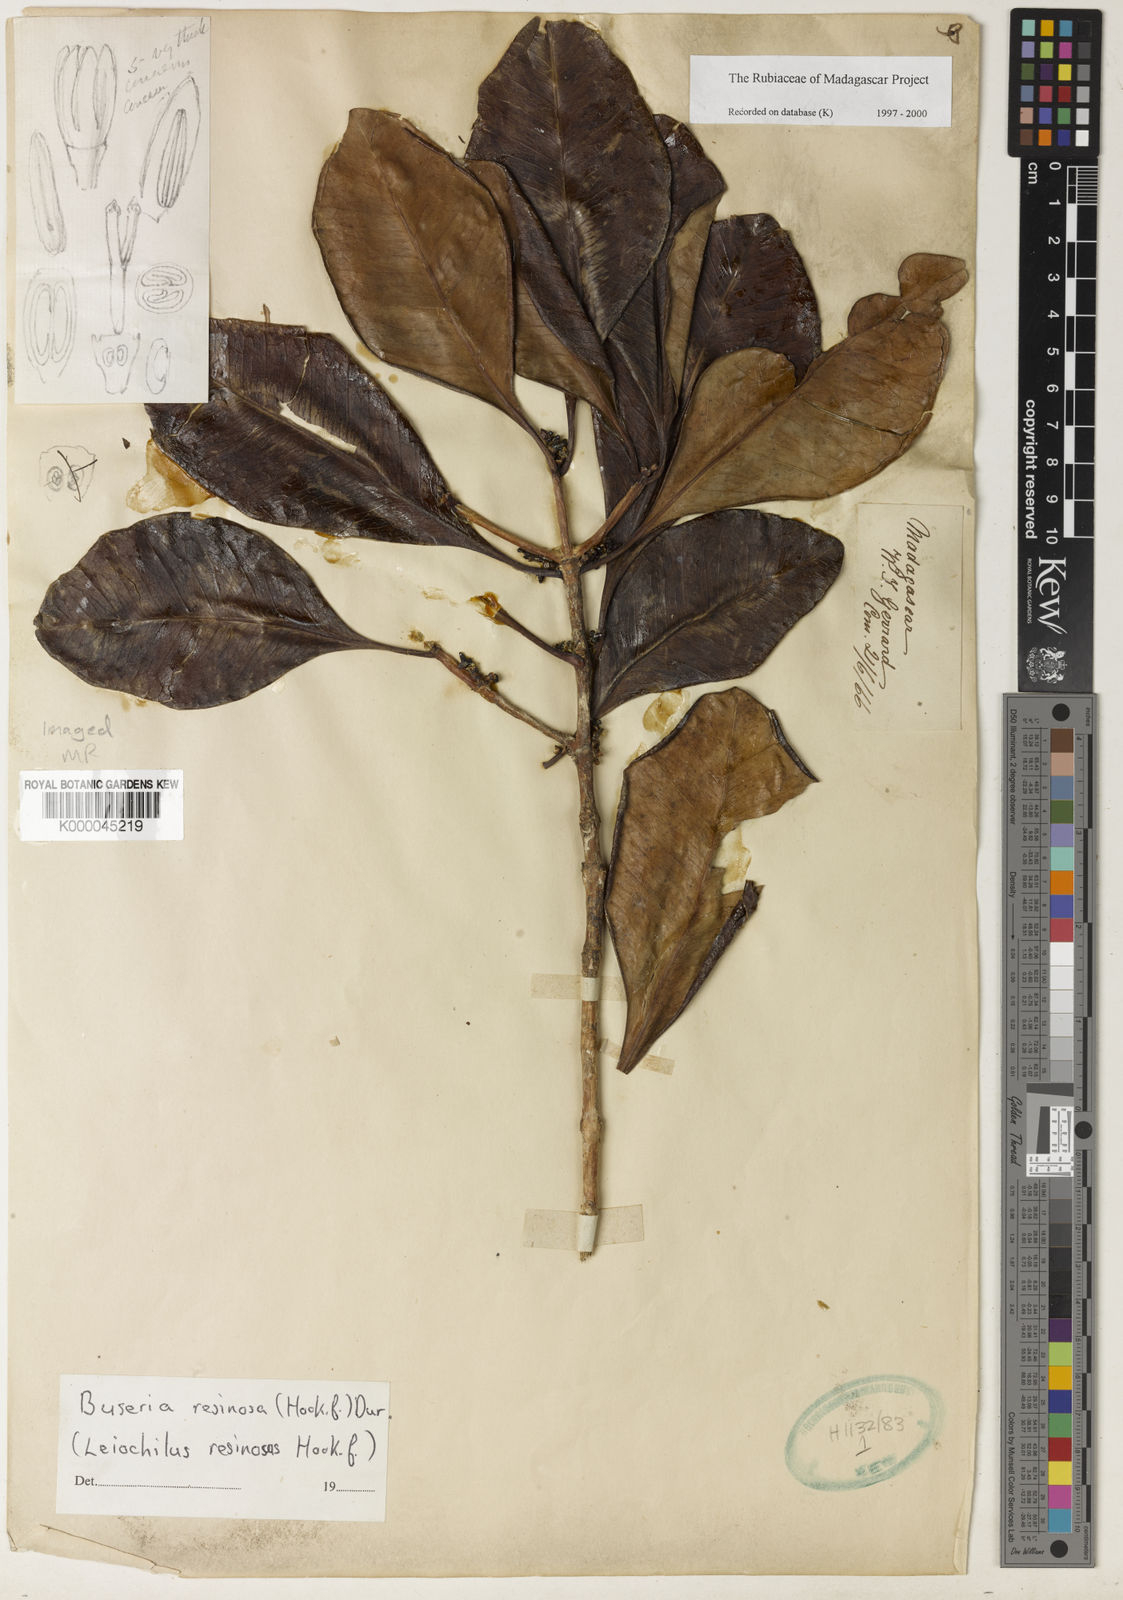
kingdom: Plantae
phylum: Tracheophyta
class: Magnoliopsida
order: Gentianales
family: Rubiaceae
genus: Coffea
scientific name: Coffea resinosa
